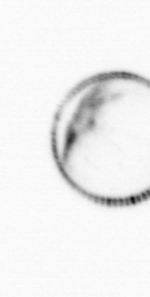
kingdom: Chromista
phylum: Myzozoa
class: Dinophyceae
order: Noctilucales
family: Noctilucaceae
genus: Noctiluca
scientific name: Noctiluca scintillans
